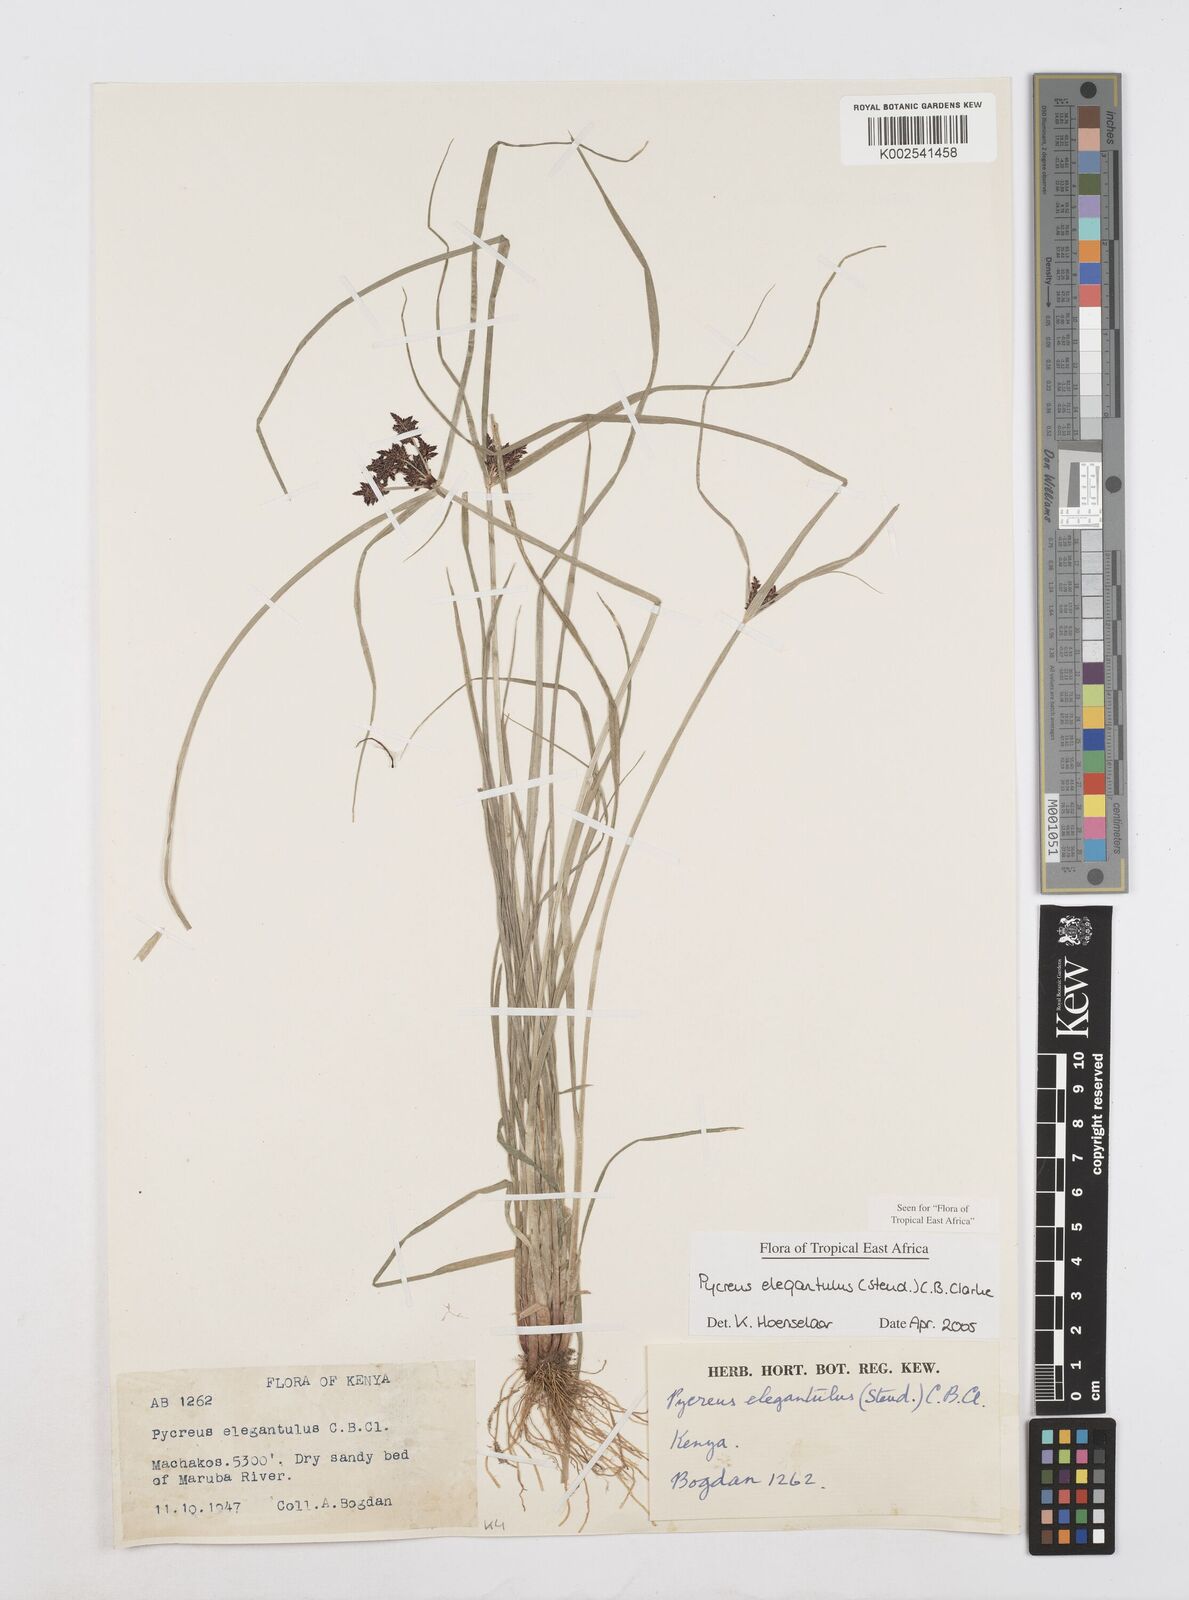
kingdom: Plantae
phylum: Tracheophyta
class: Liliopsida
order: Poales
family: Cyperaceae
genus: Cyperus
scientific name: Cyperus elegantulus
